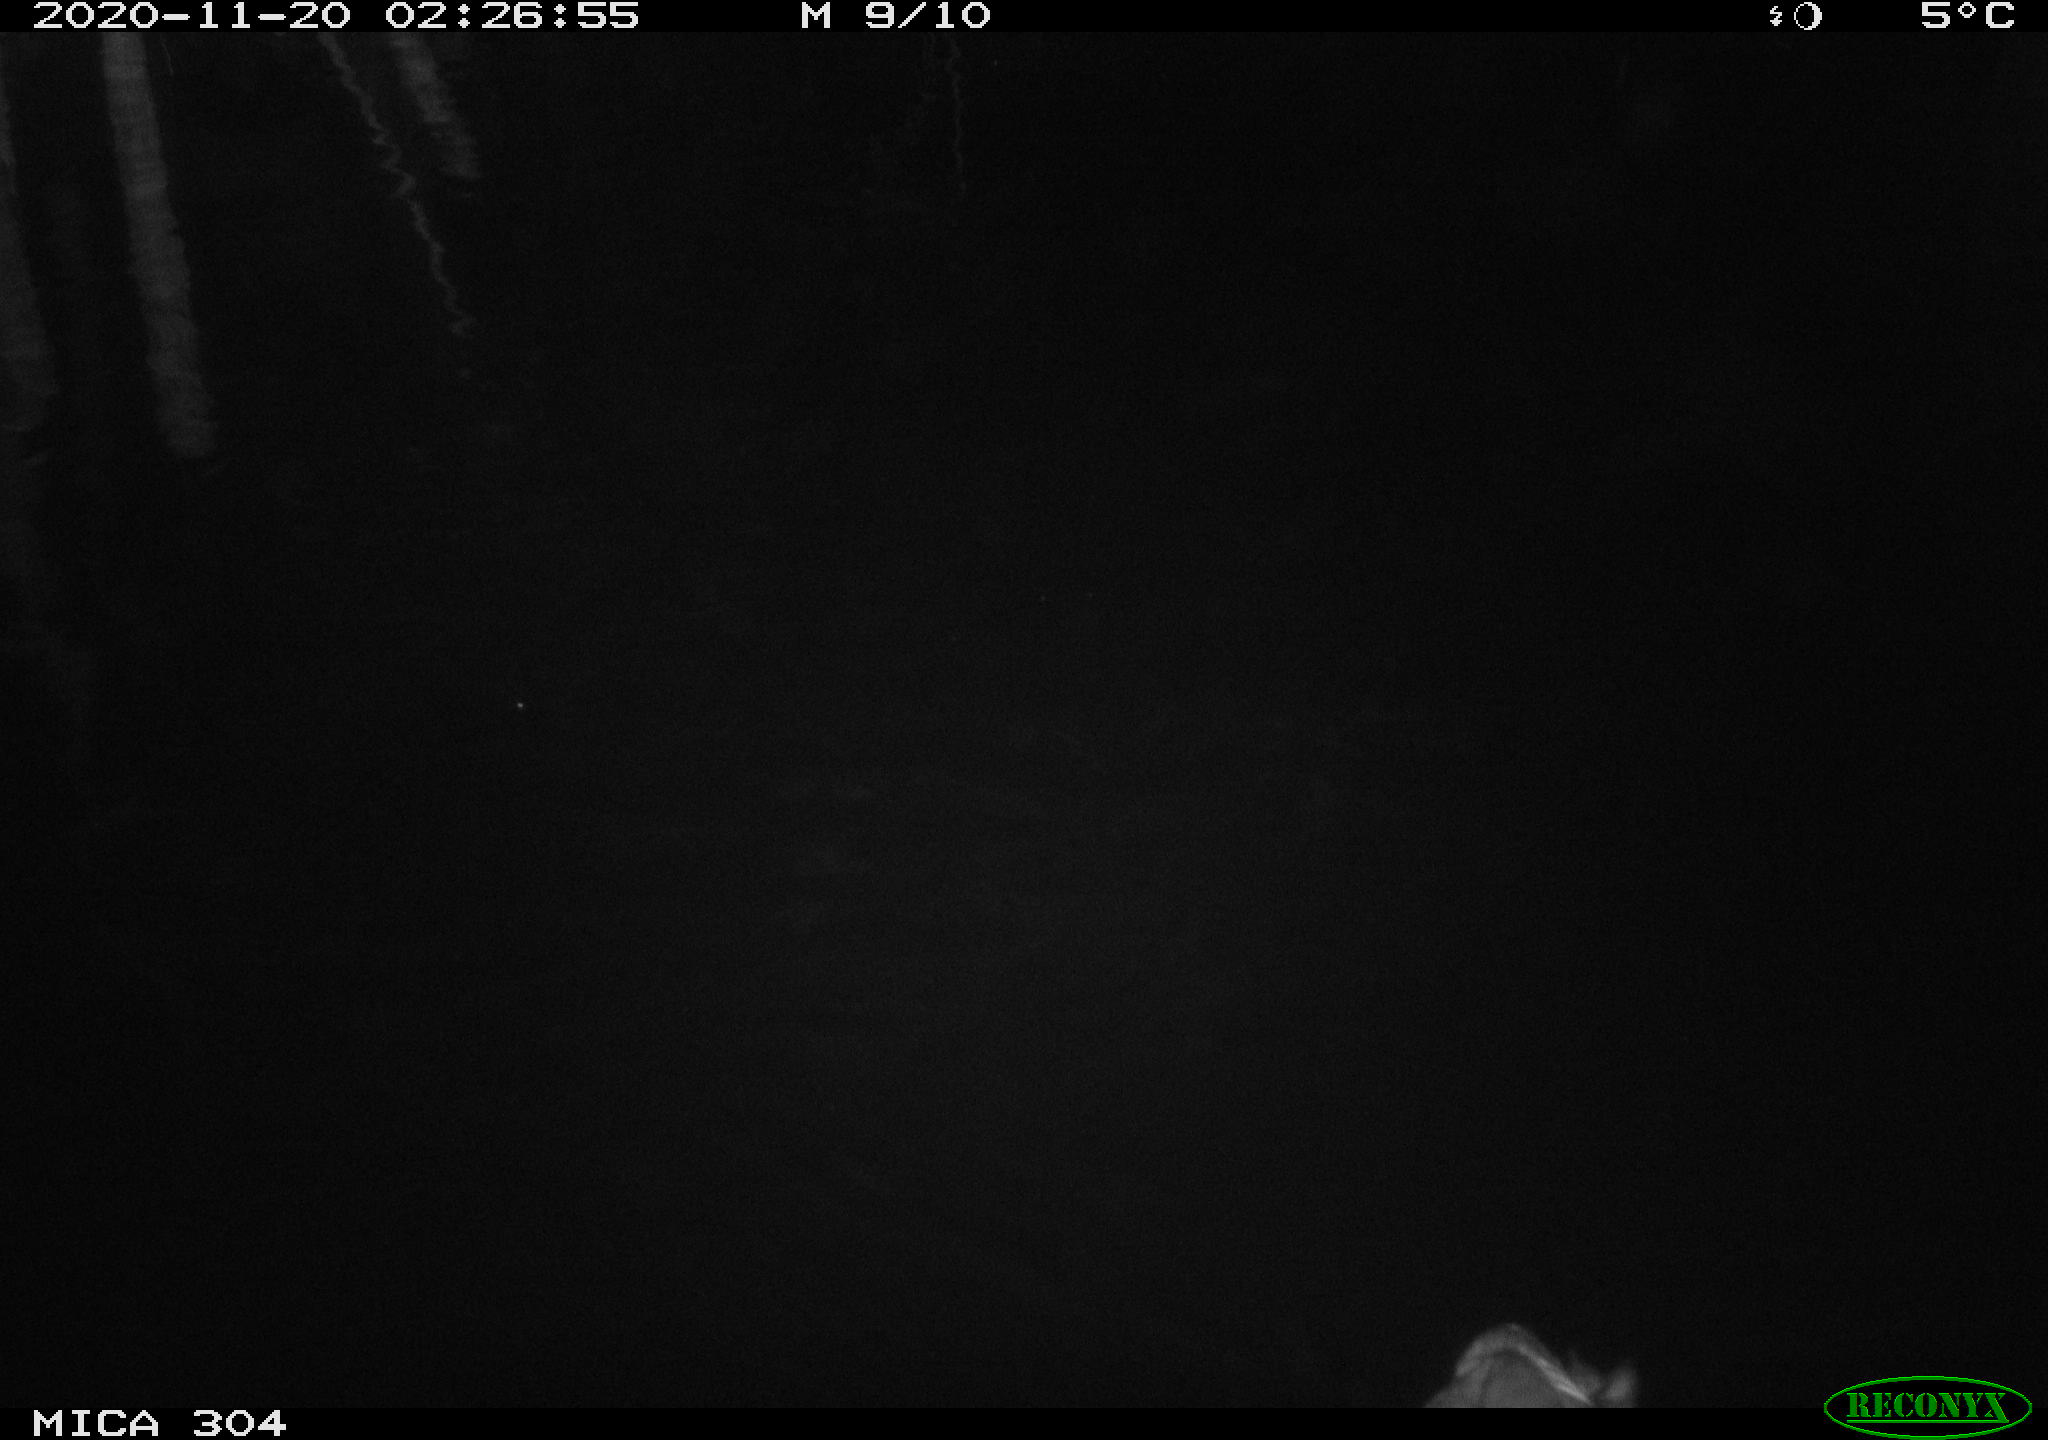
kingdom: Animalia
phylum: Chordata
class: Aves
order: Gruiformes
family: Rallidae
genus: Fulica
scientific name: Fulica atra
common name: Eurasian coot
